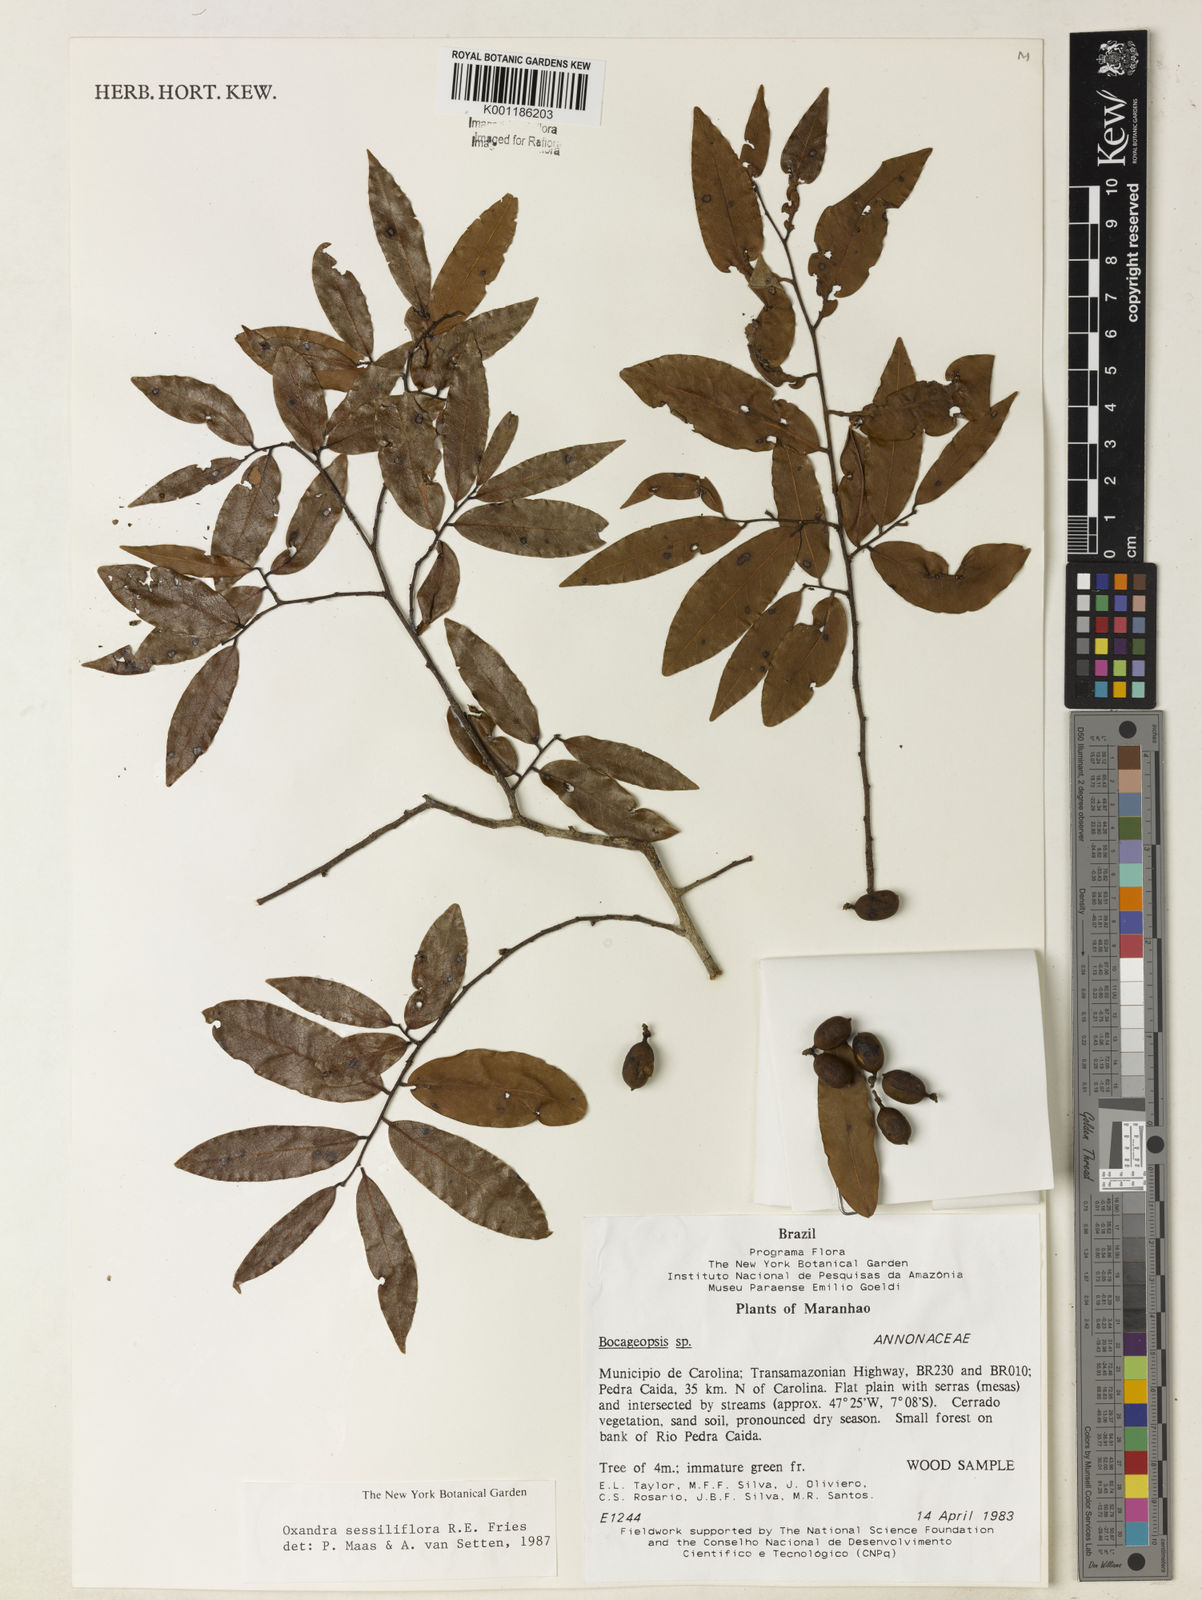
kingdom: Plantae
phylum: Tracheophyta
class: Magnoliopsida
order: Magnoliales
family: Annonaceae
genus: Oxandra
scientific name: Oxandra sessiliflora
